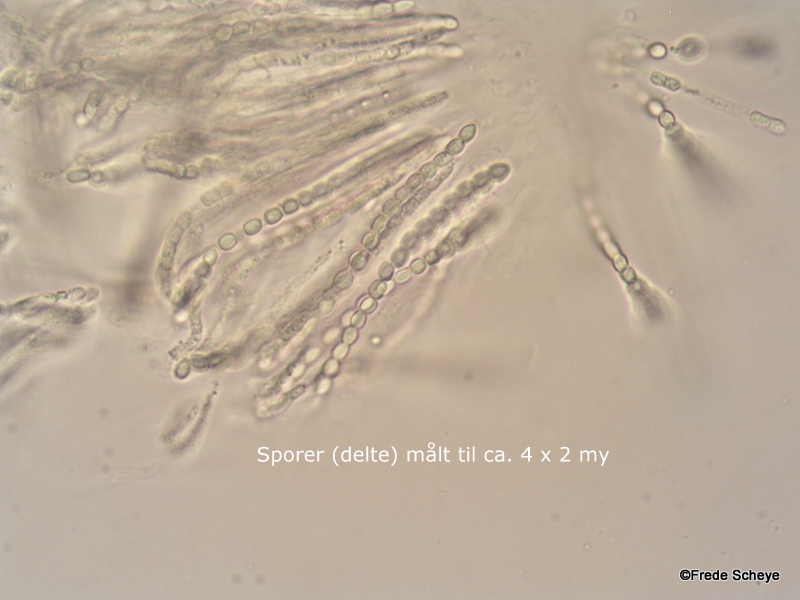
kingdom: Fungi
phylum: Ascomycota
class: Sordariomycetes
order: Hypocreales
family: Hypocreaceae
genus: Trichoderma
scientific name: Trichoderma pulvinatum
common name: snyltende kødkerne
